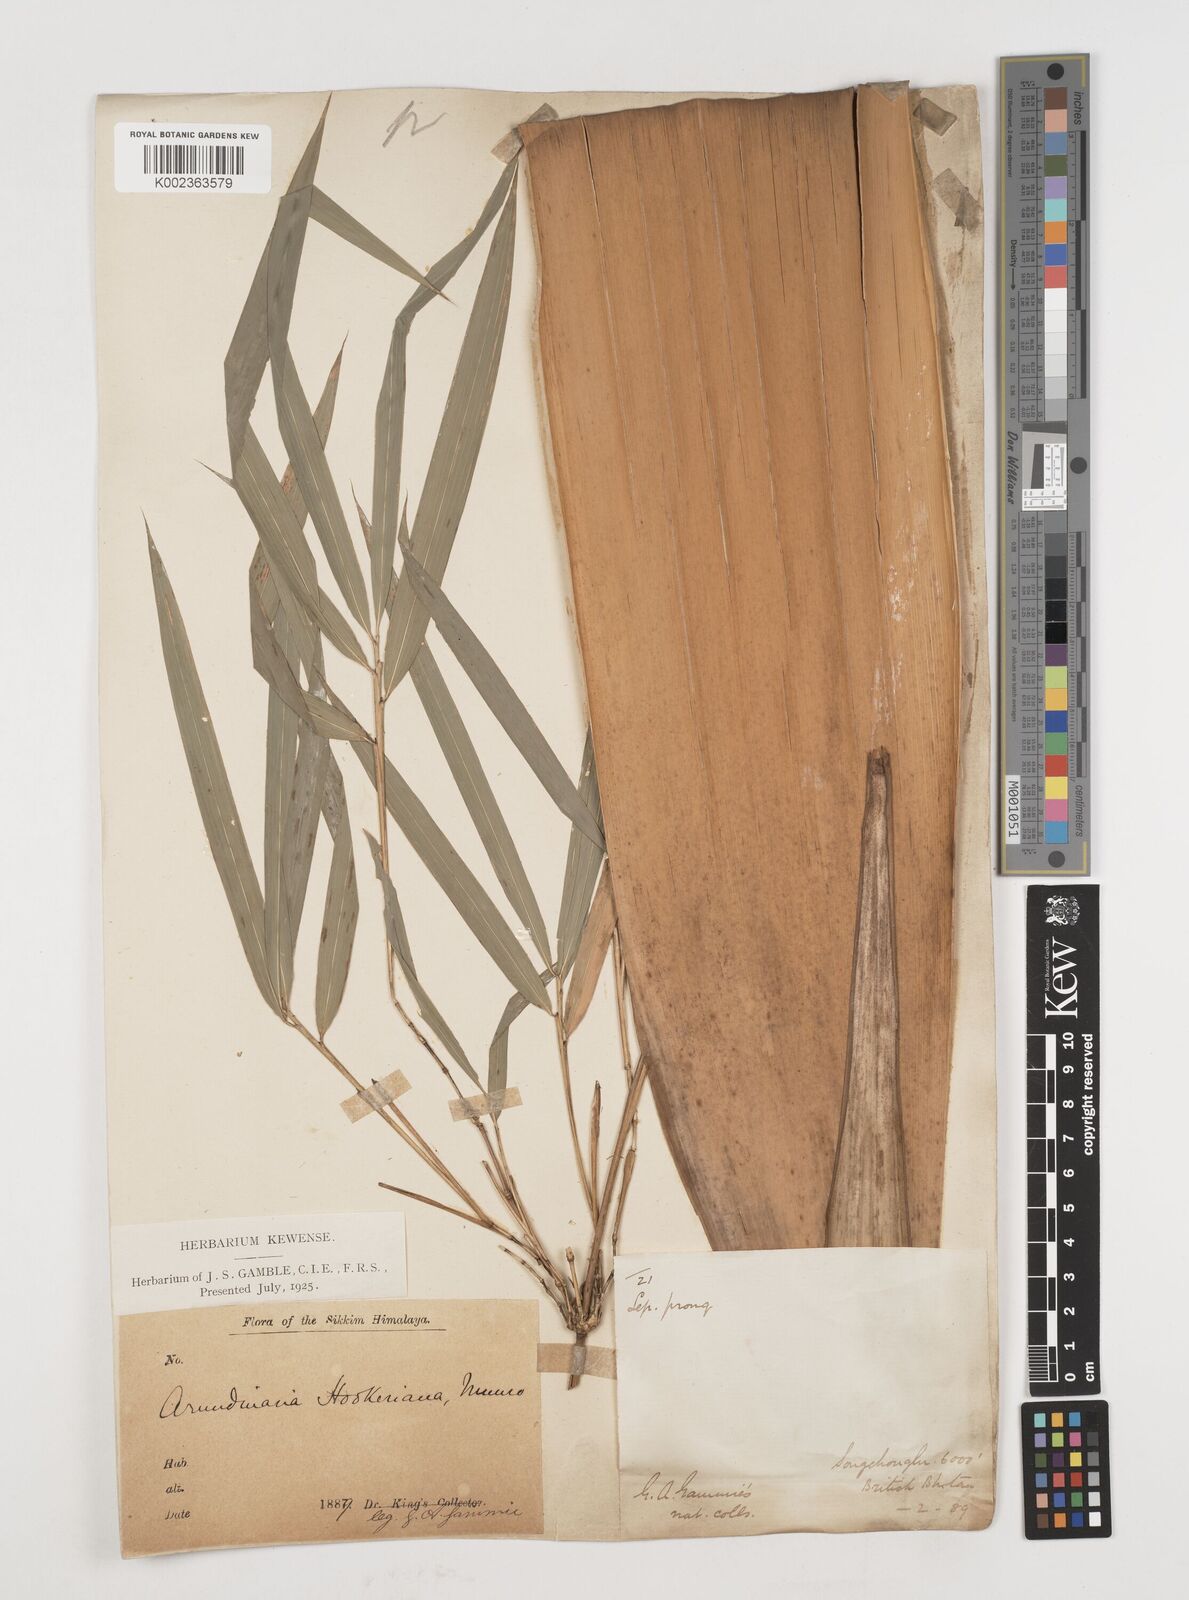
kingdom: Plantae
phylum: Tracheophyta
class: Liliopsida
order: Poales
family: Poaceae
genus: Himalayacalamus
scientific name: Himalayacalamus hookerianus
